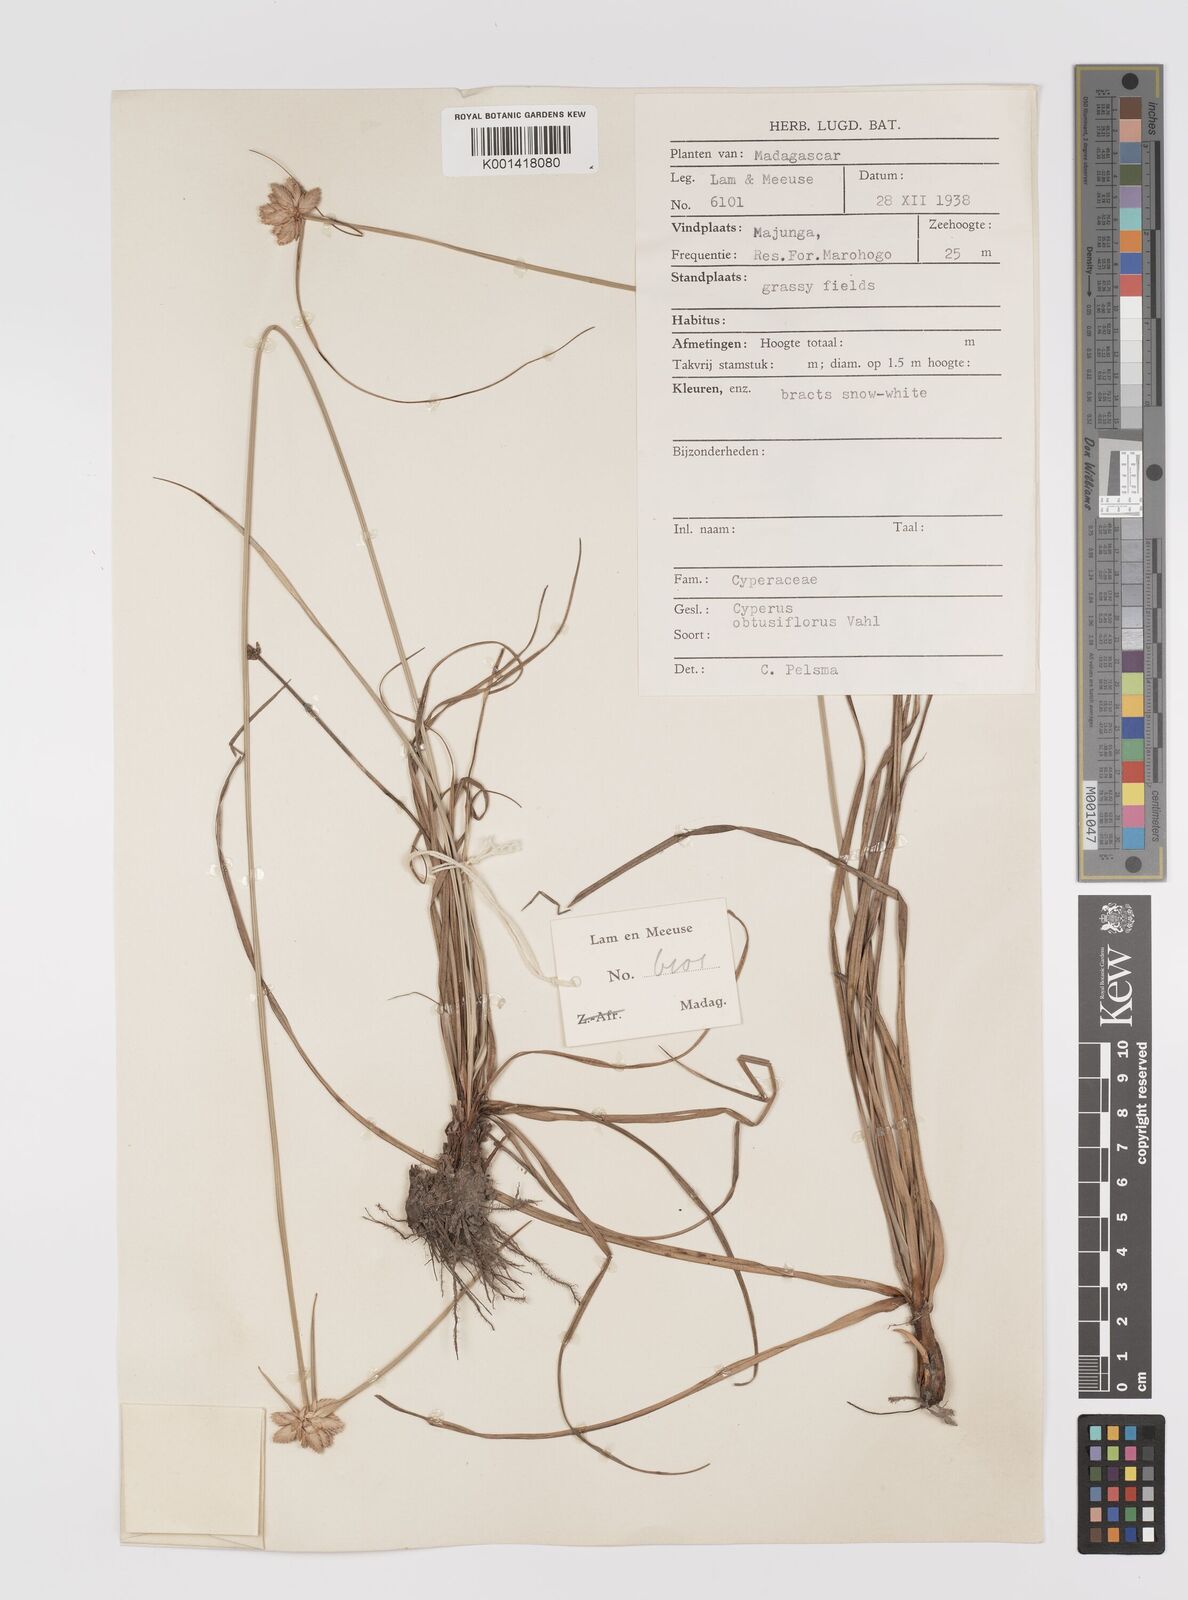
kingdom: Plantae
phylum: Tracheophyta
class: Liliopsida
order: Poales
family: Cyperaceae
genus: Cyperus
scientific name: Cyperus niveus
